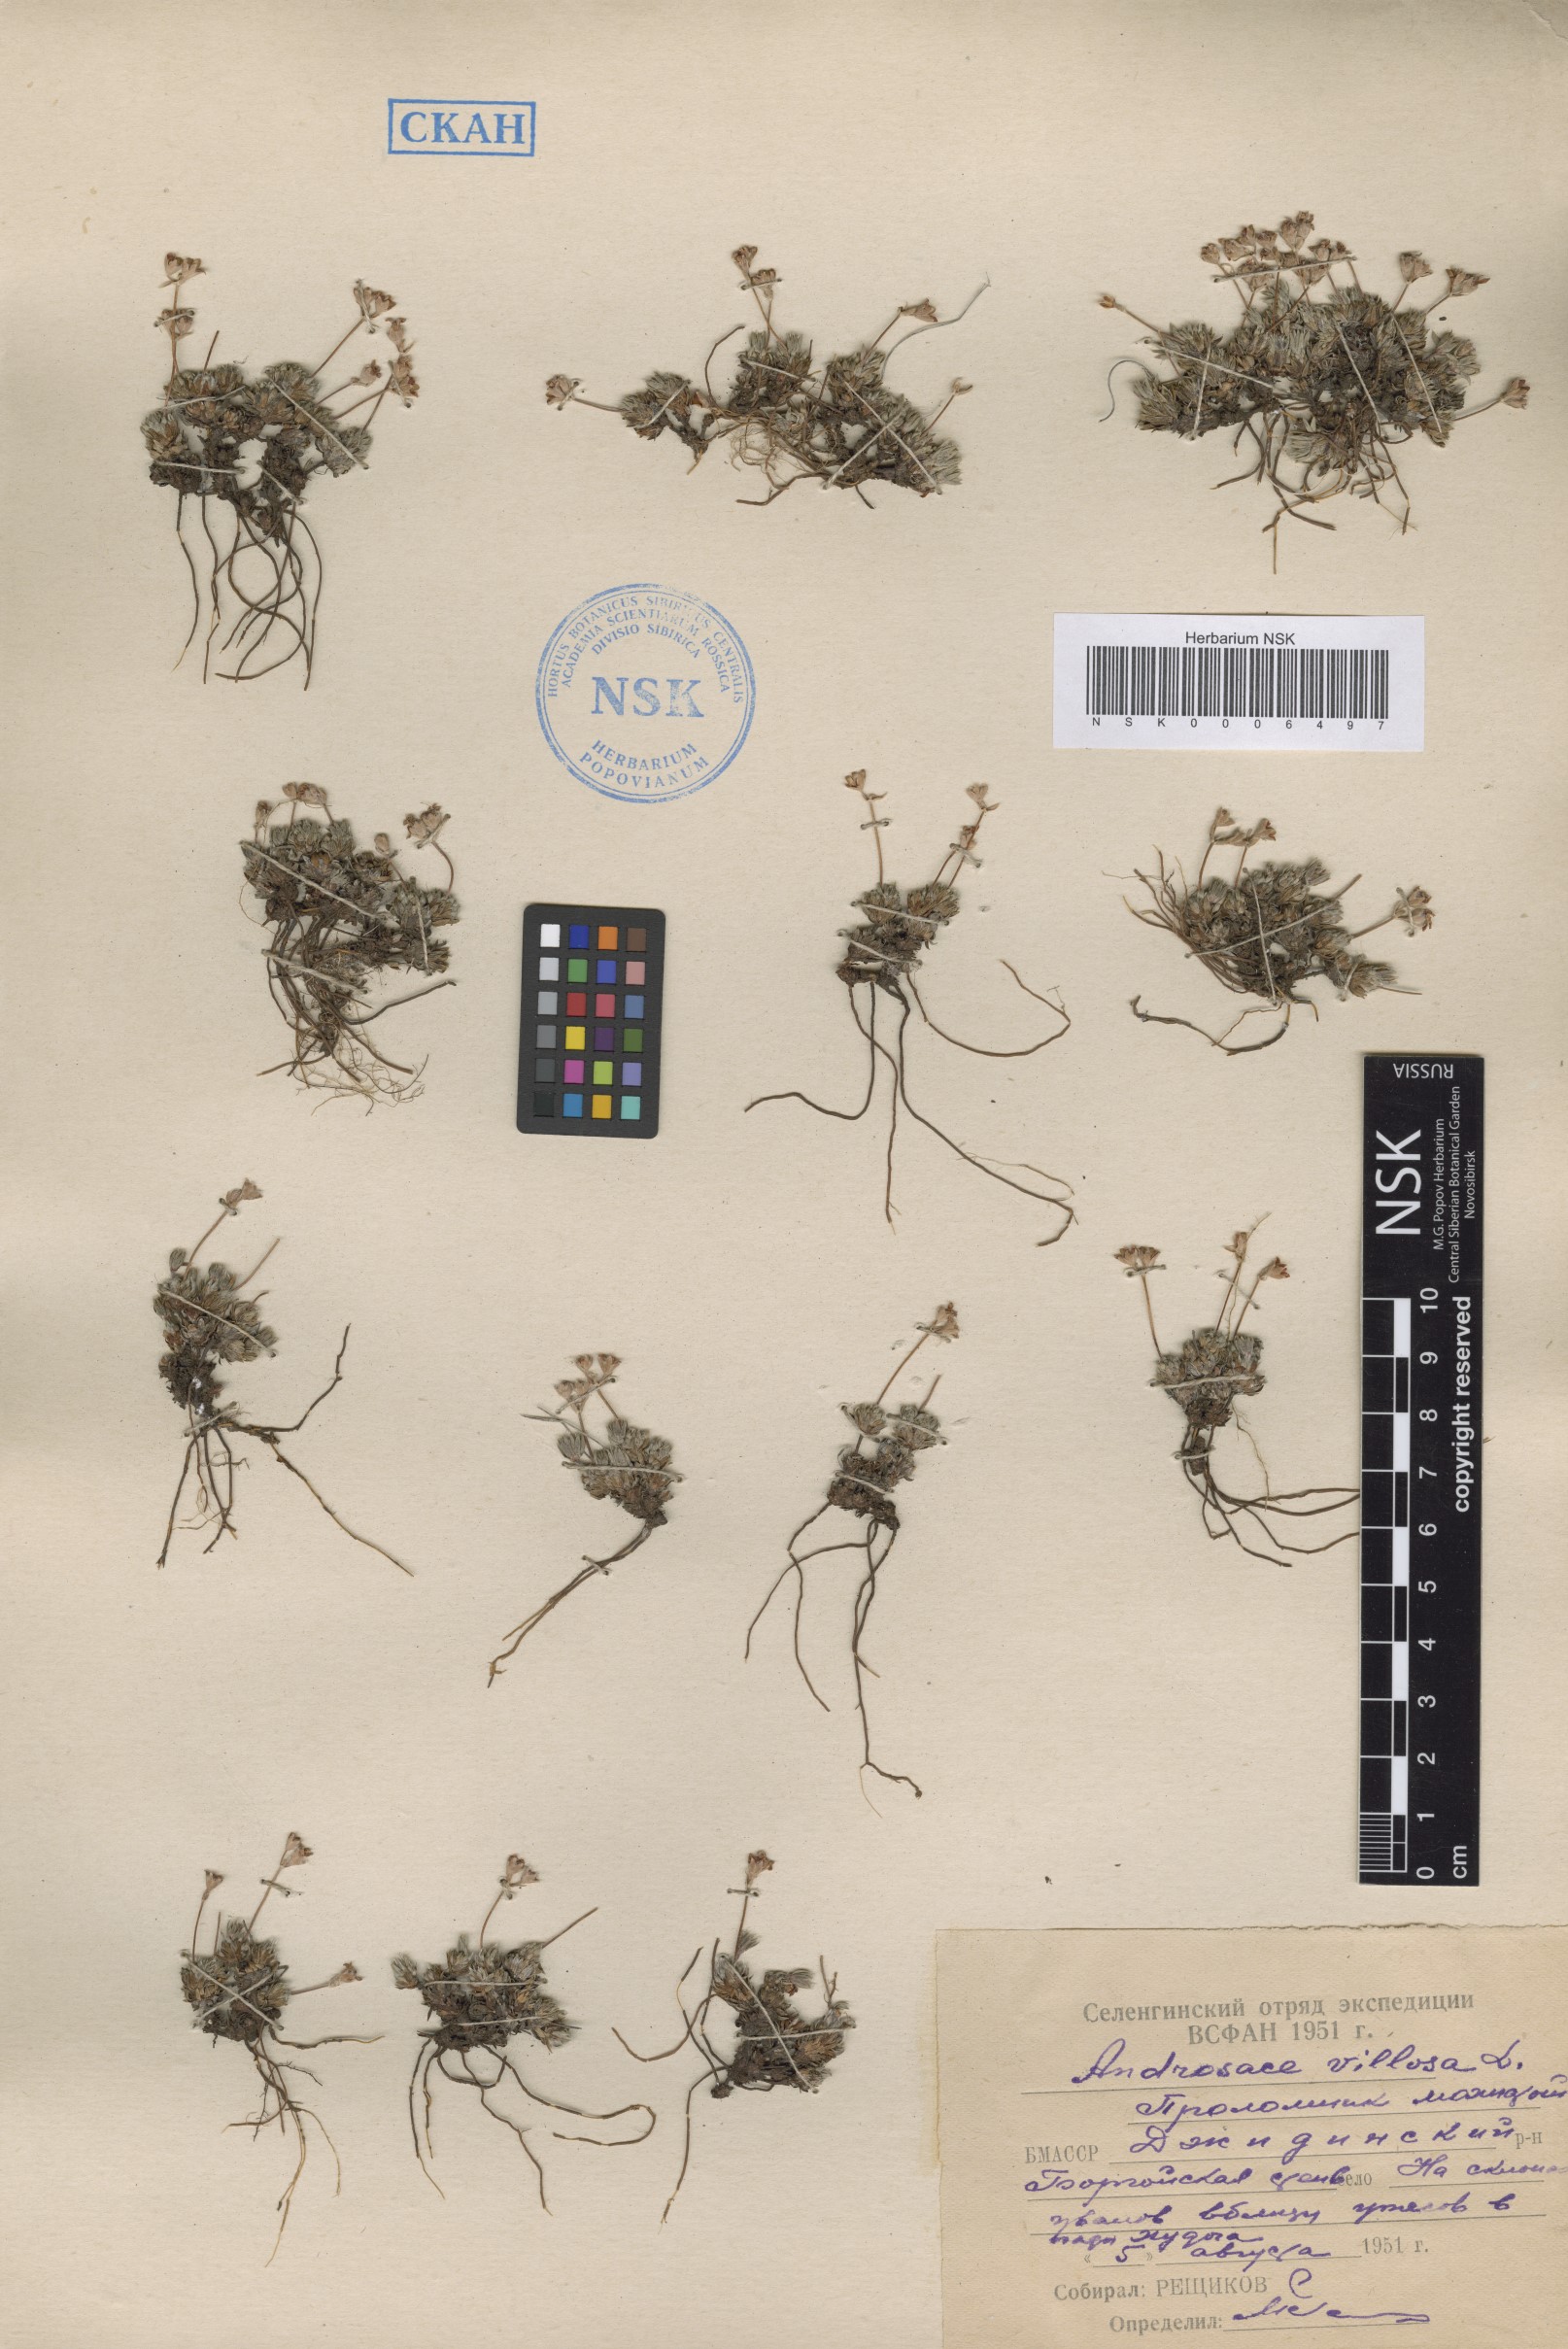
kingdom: Plantae
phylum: Tracheophyta
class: Magnoliopsida
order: Ericales
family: Primulaceae
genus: Androsace
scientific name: Androsace incana
